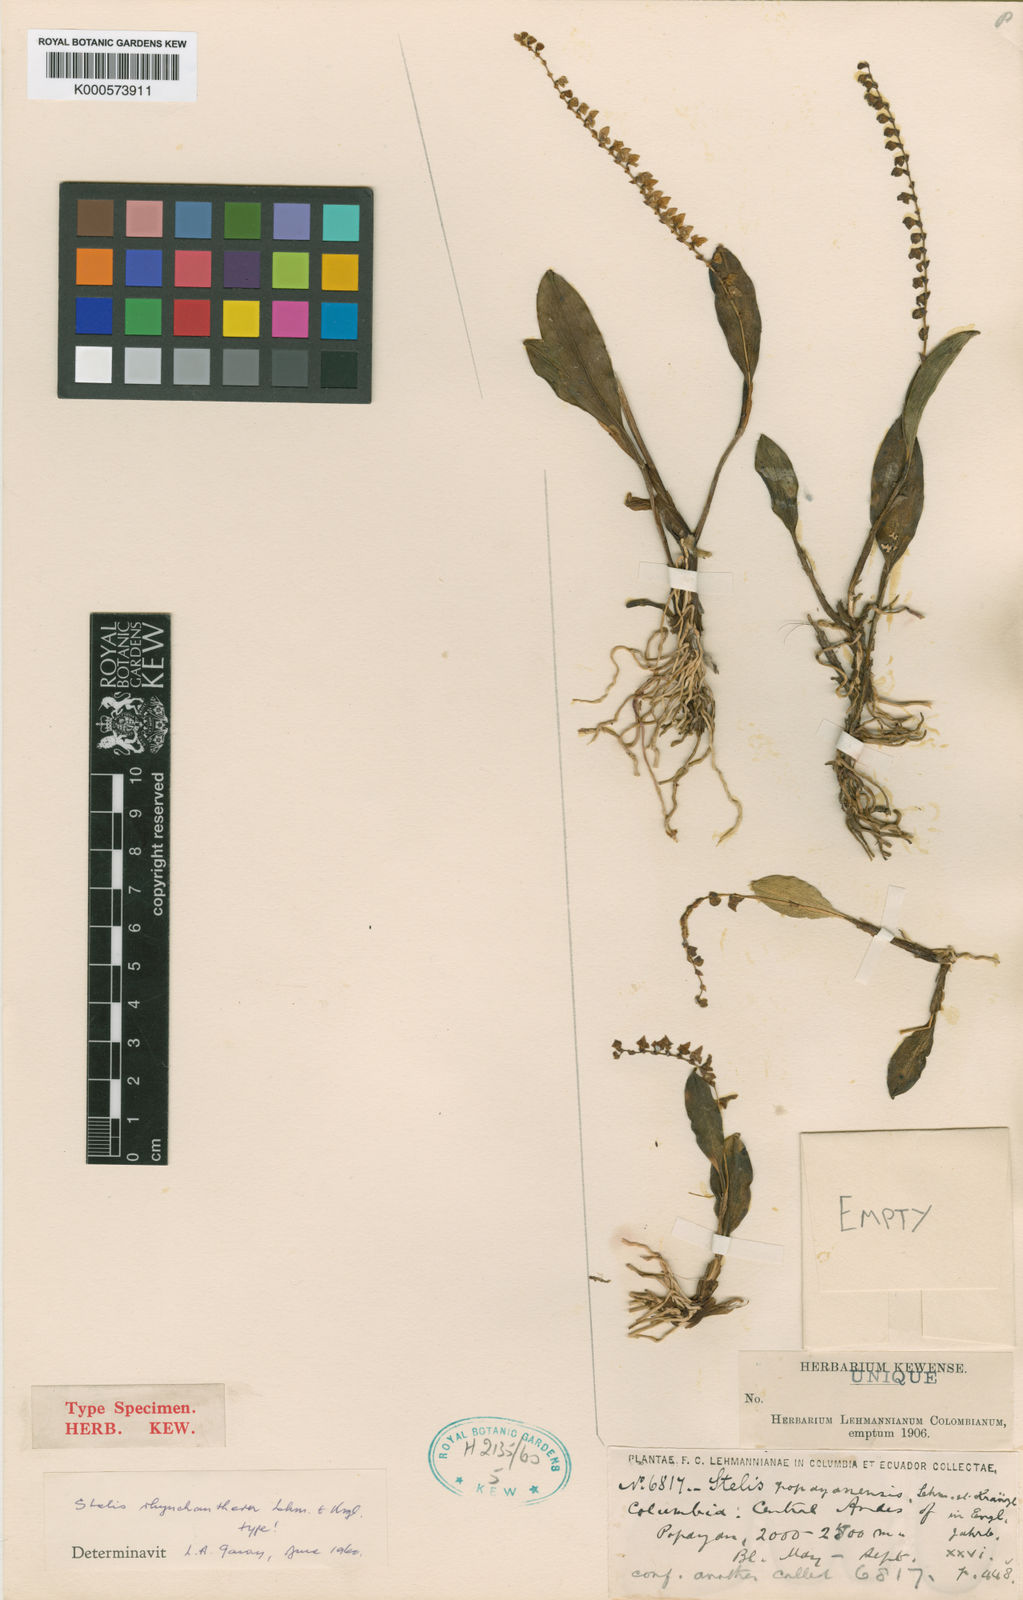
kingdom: Plantae
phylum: Tracheophyta
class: Liliopsida
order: Asparagales
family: Orchidaceae
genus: Stelis
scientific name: Stelis lanceolata
